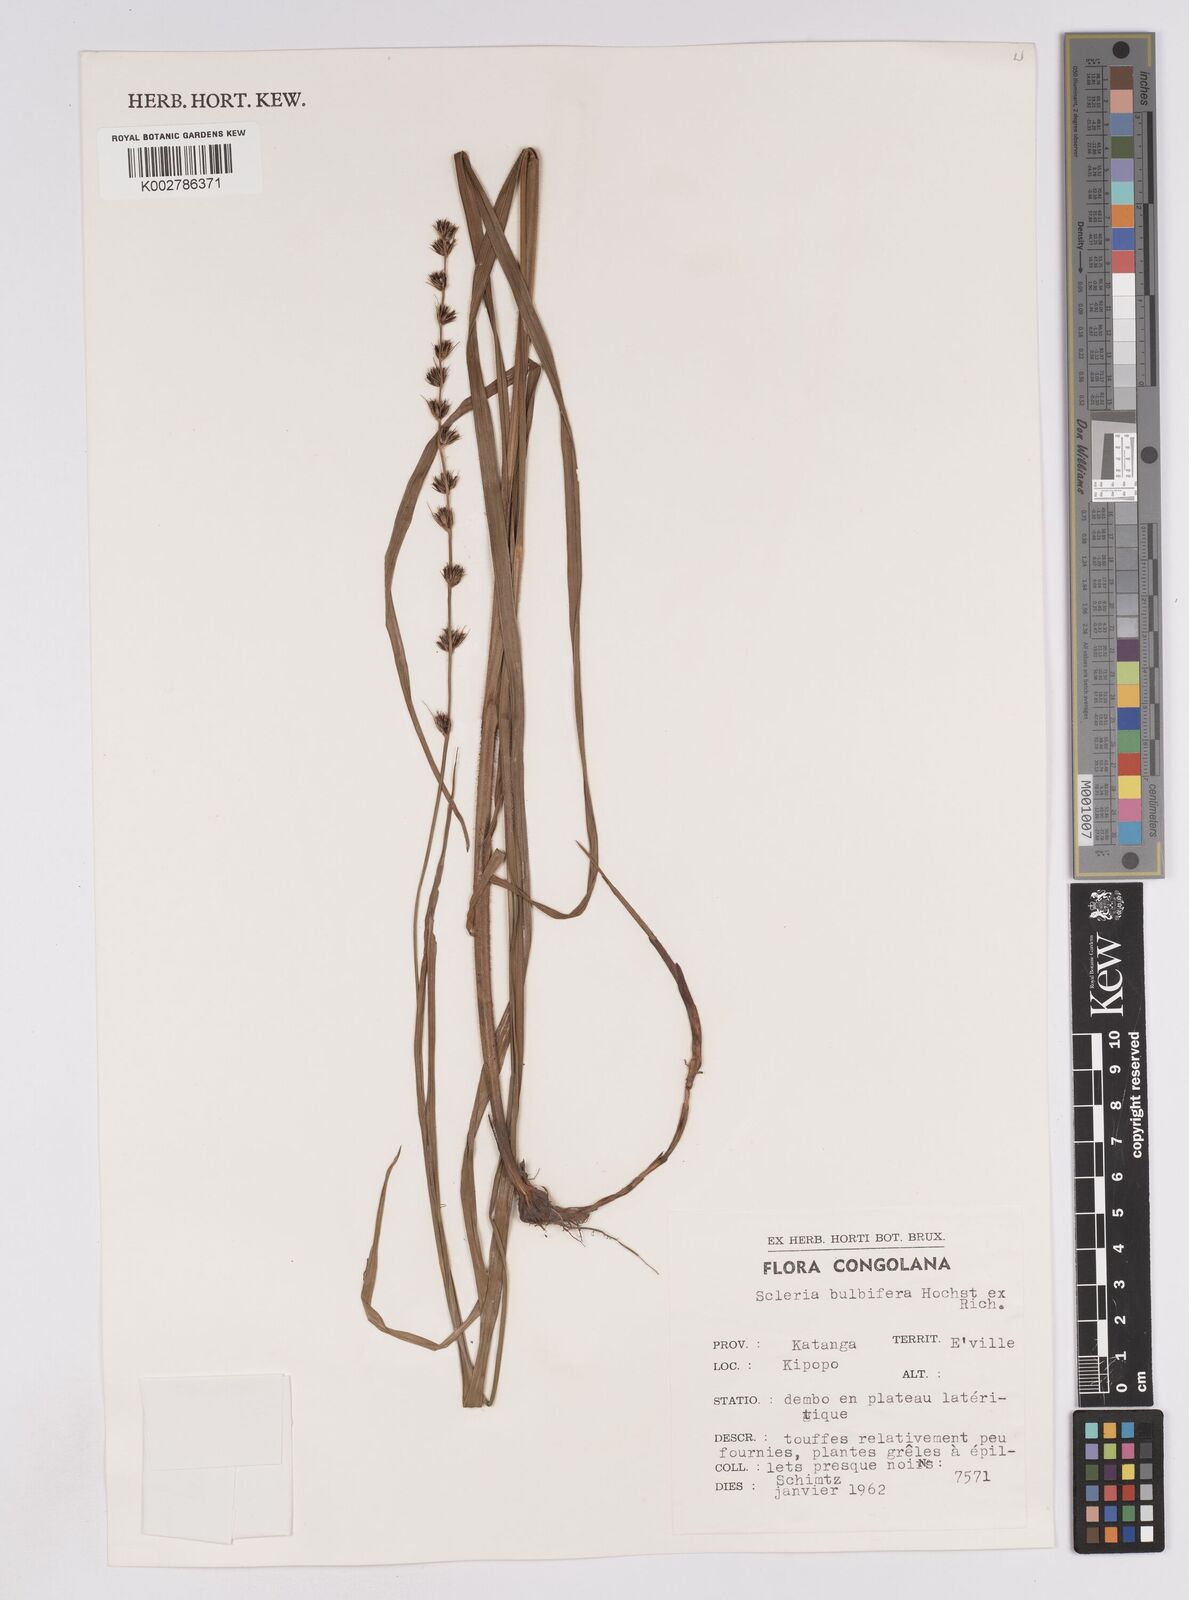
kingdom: Plantae
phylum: Tracheophyta
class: Liliopsida
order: Poales
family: Cyperaceae
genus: Scleria
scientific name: Scleria bulbifera
